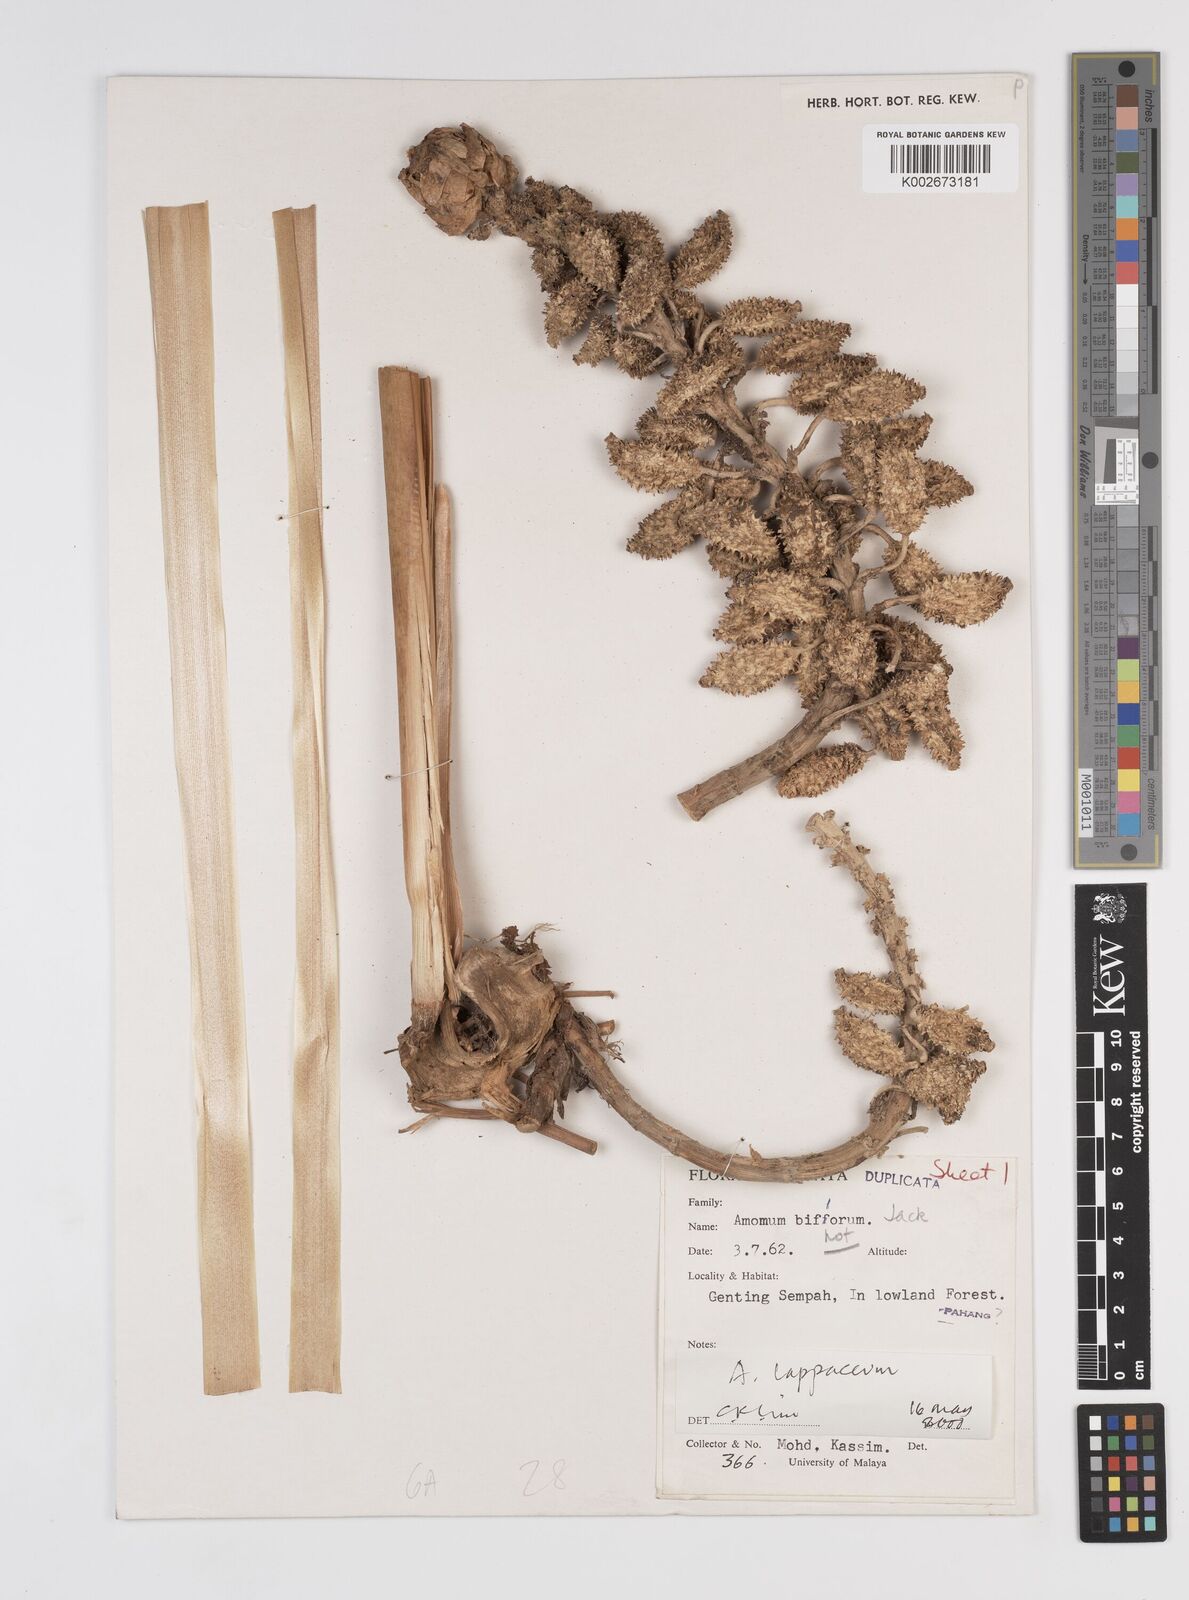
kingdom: Plantae
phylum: Tracheophyta
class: Liliopsida
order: Zingiberales
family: Zingiberaceae
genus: Meistera
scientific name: Meistera lappacea
